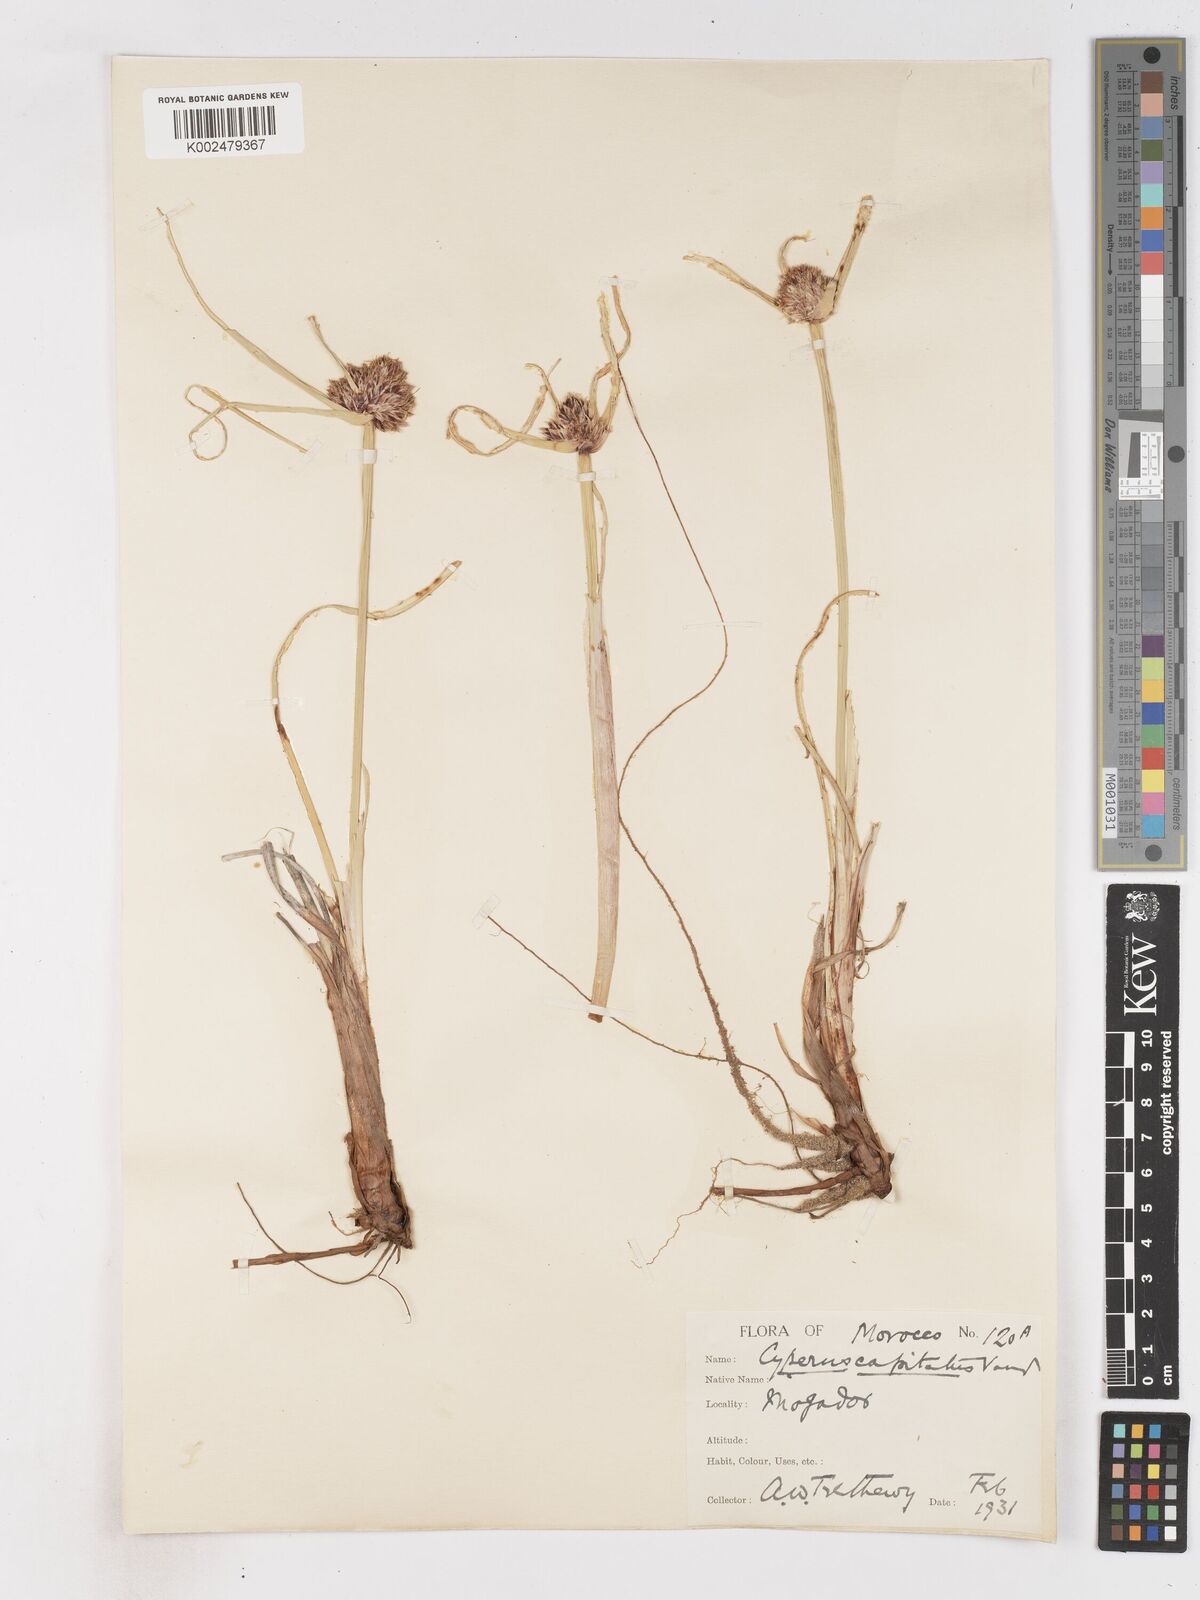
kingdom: Plantae
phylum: Tracheophyta
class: Liliopsida
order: Poales
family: Cyperaceae
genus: Cyperus
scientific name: Cyperus capitatus
